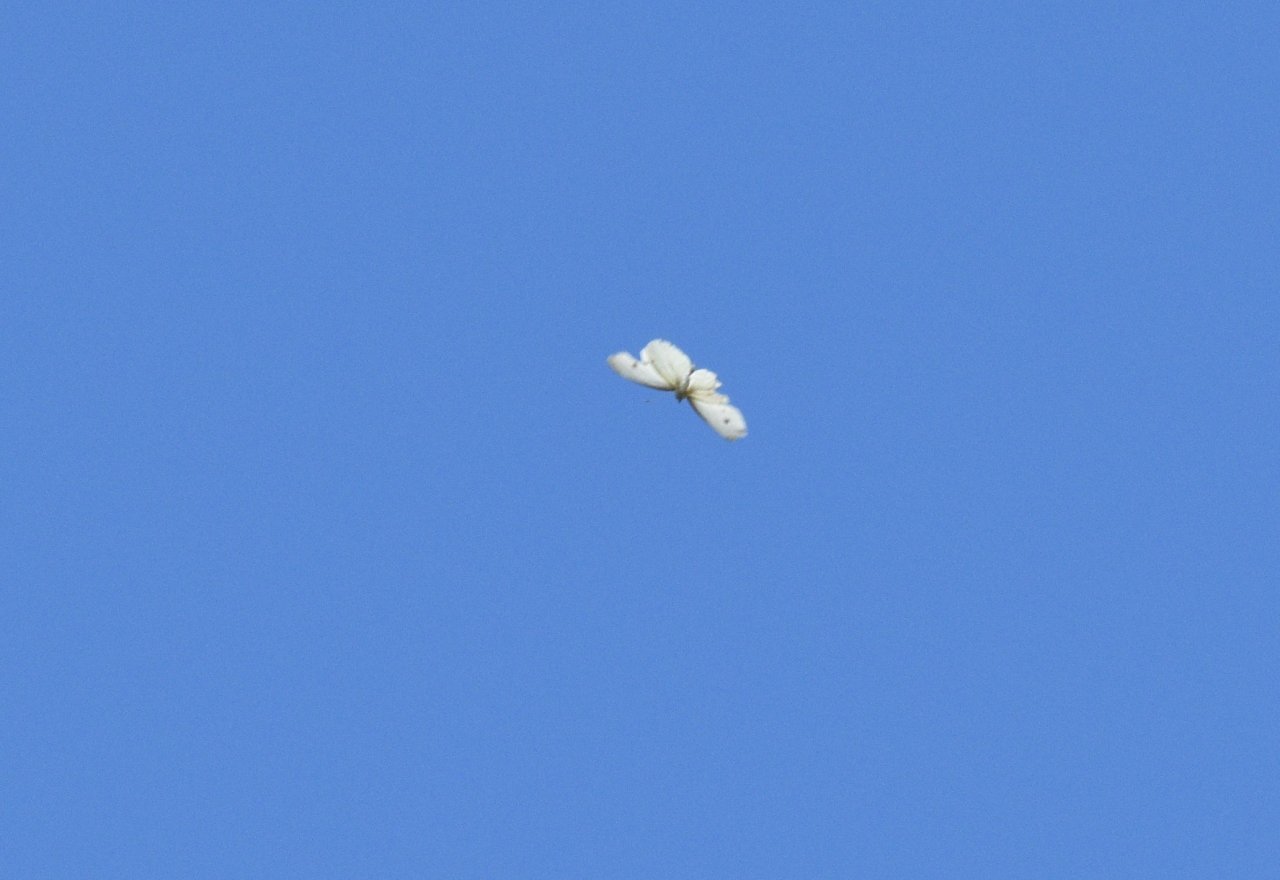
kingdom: Animalia
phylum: Arthropoda
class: Insecta
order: Lepidoptera
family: Pieridae
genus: Pieris
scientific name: Pieris rapae
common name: Cabbage White
